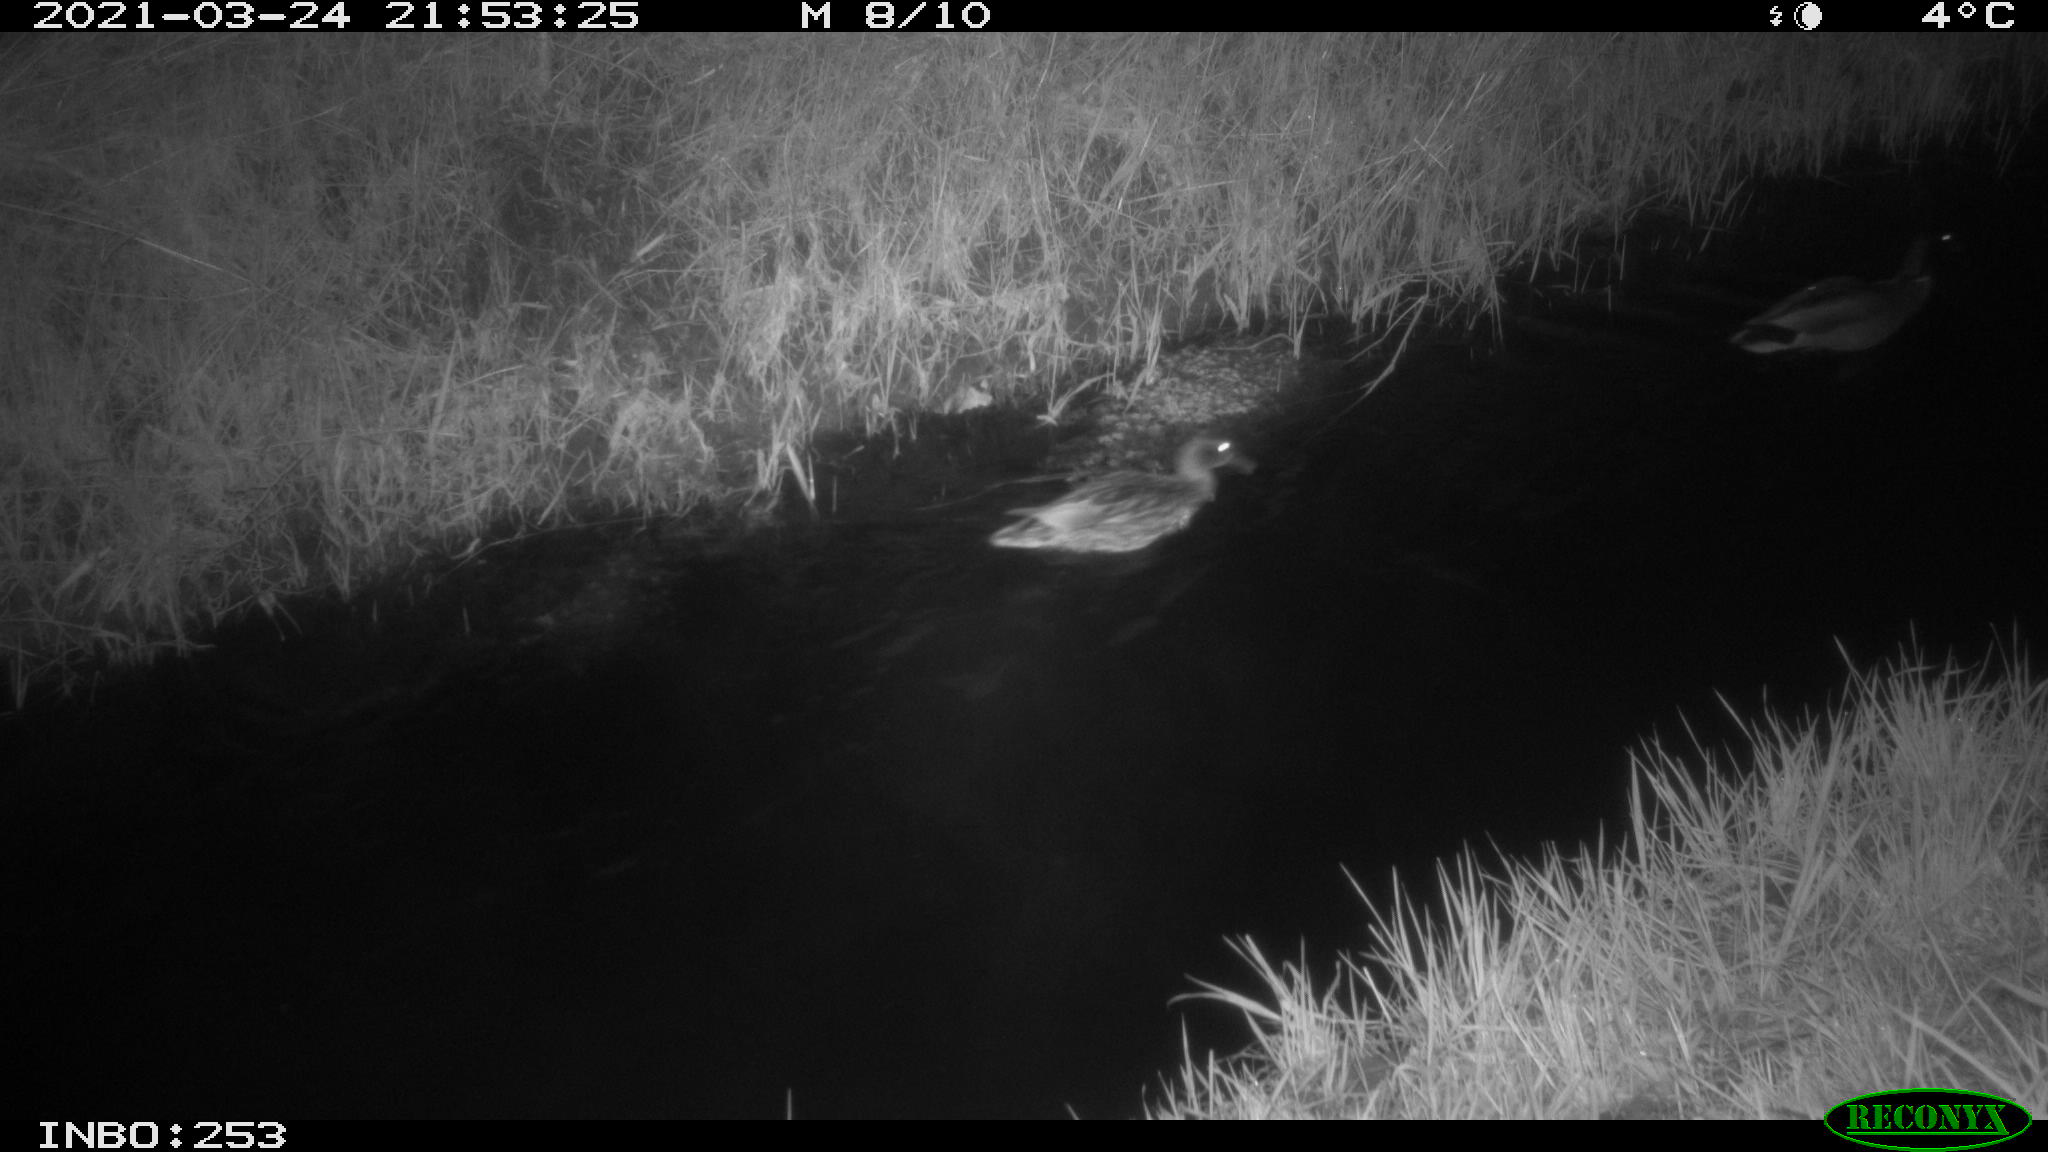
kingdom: Animalia
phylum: Chordata
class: Aves
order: Anseriformes
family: Anatidae
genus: Anas
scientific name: Anas platyrhynchos
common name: Mallard
